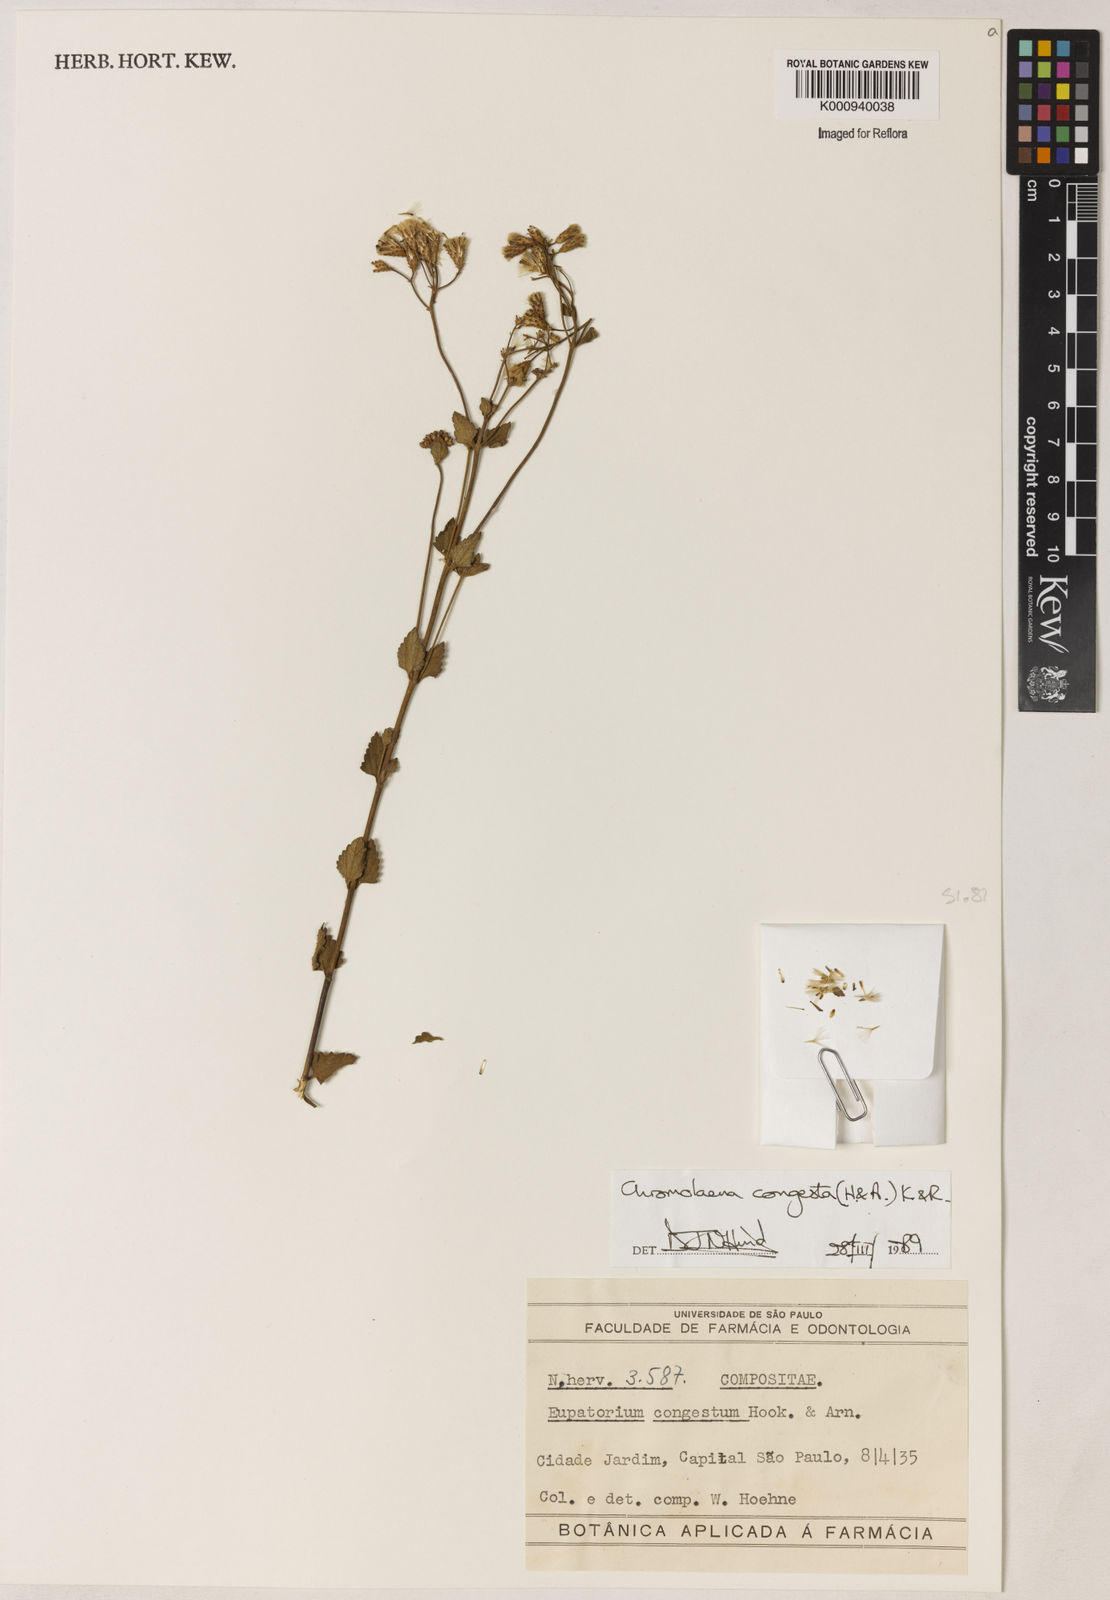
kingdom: Plantae
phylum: Tracheophyta
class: Magnoliopsida
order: Asterales
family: Asteraceae
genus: Chromolaena
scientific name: Chromolaena congesta
